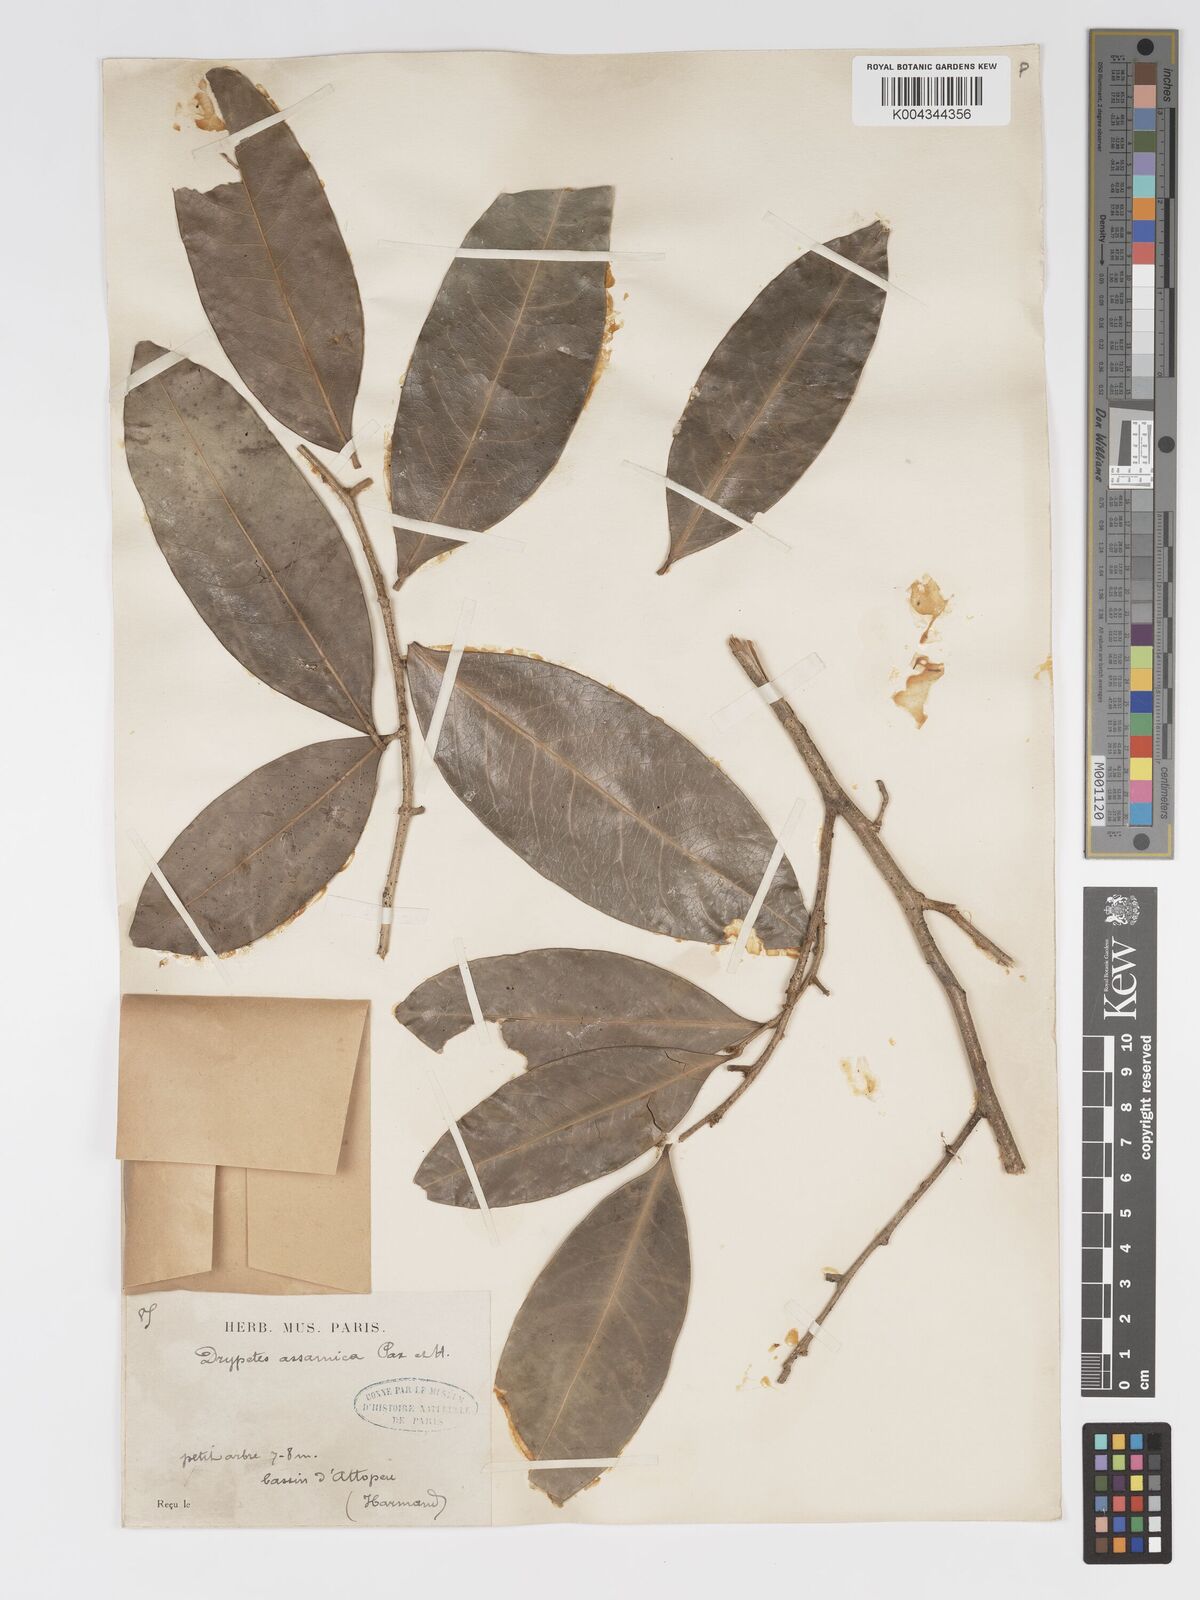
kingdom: Plantae
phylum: Tracheophyta
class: Magnoliopsida
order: Malpighiales
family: Putranjivaceae
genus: Drypetes
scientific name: Drypetes assamica
